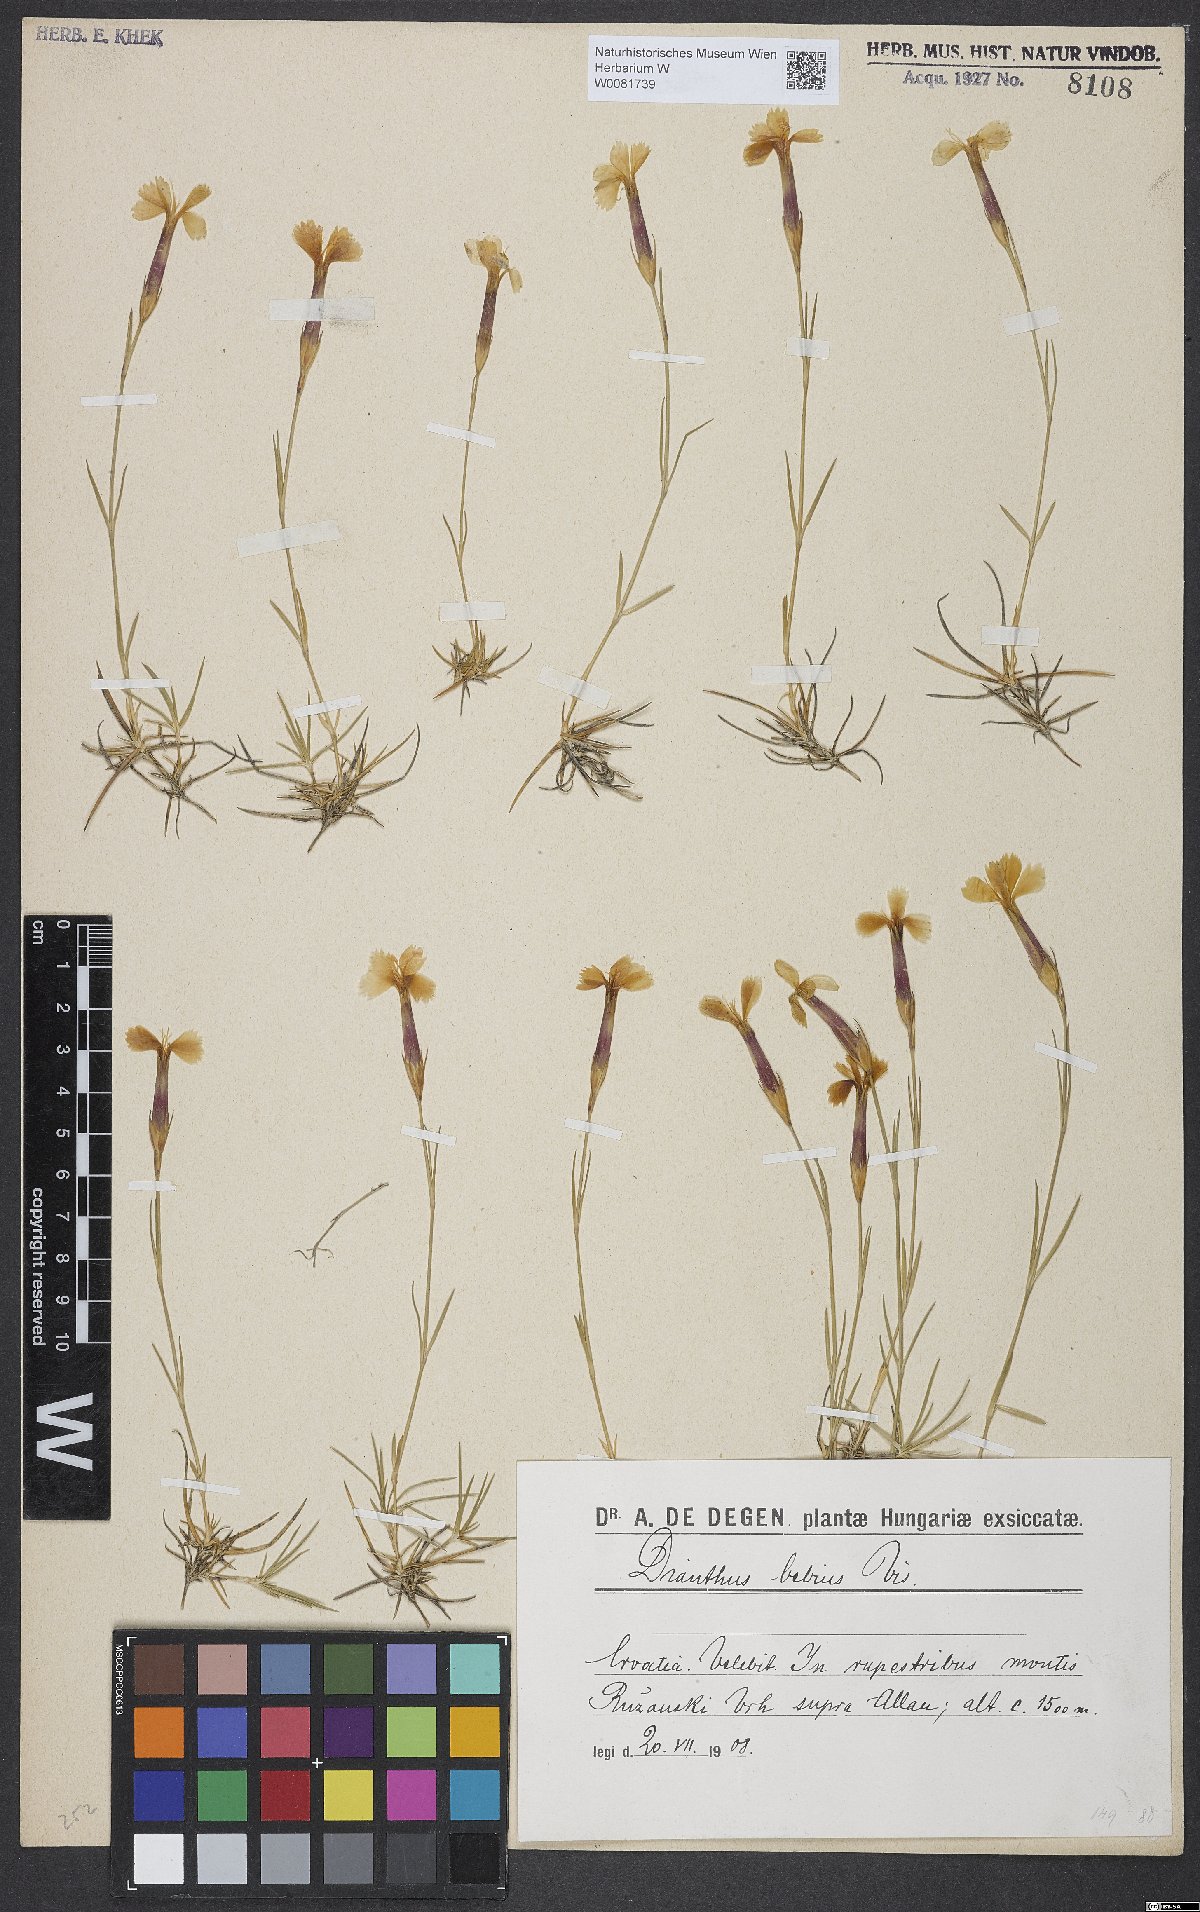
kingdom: Plantae
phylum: Tracheophyta
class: Magnoliopsida
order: Caryophyllales
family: Caryophyllaceae
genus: Dianthus
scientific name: Dianthus petraeus
